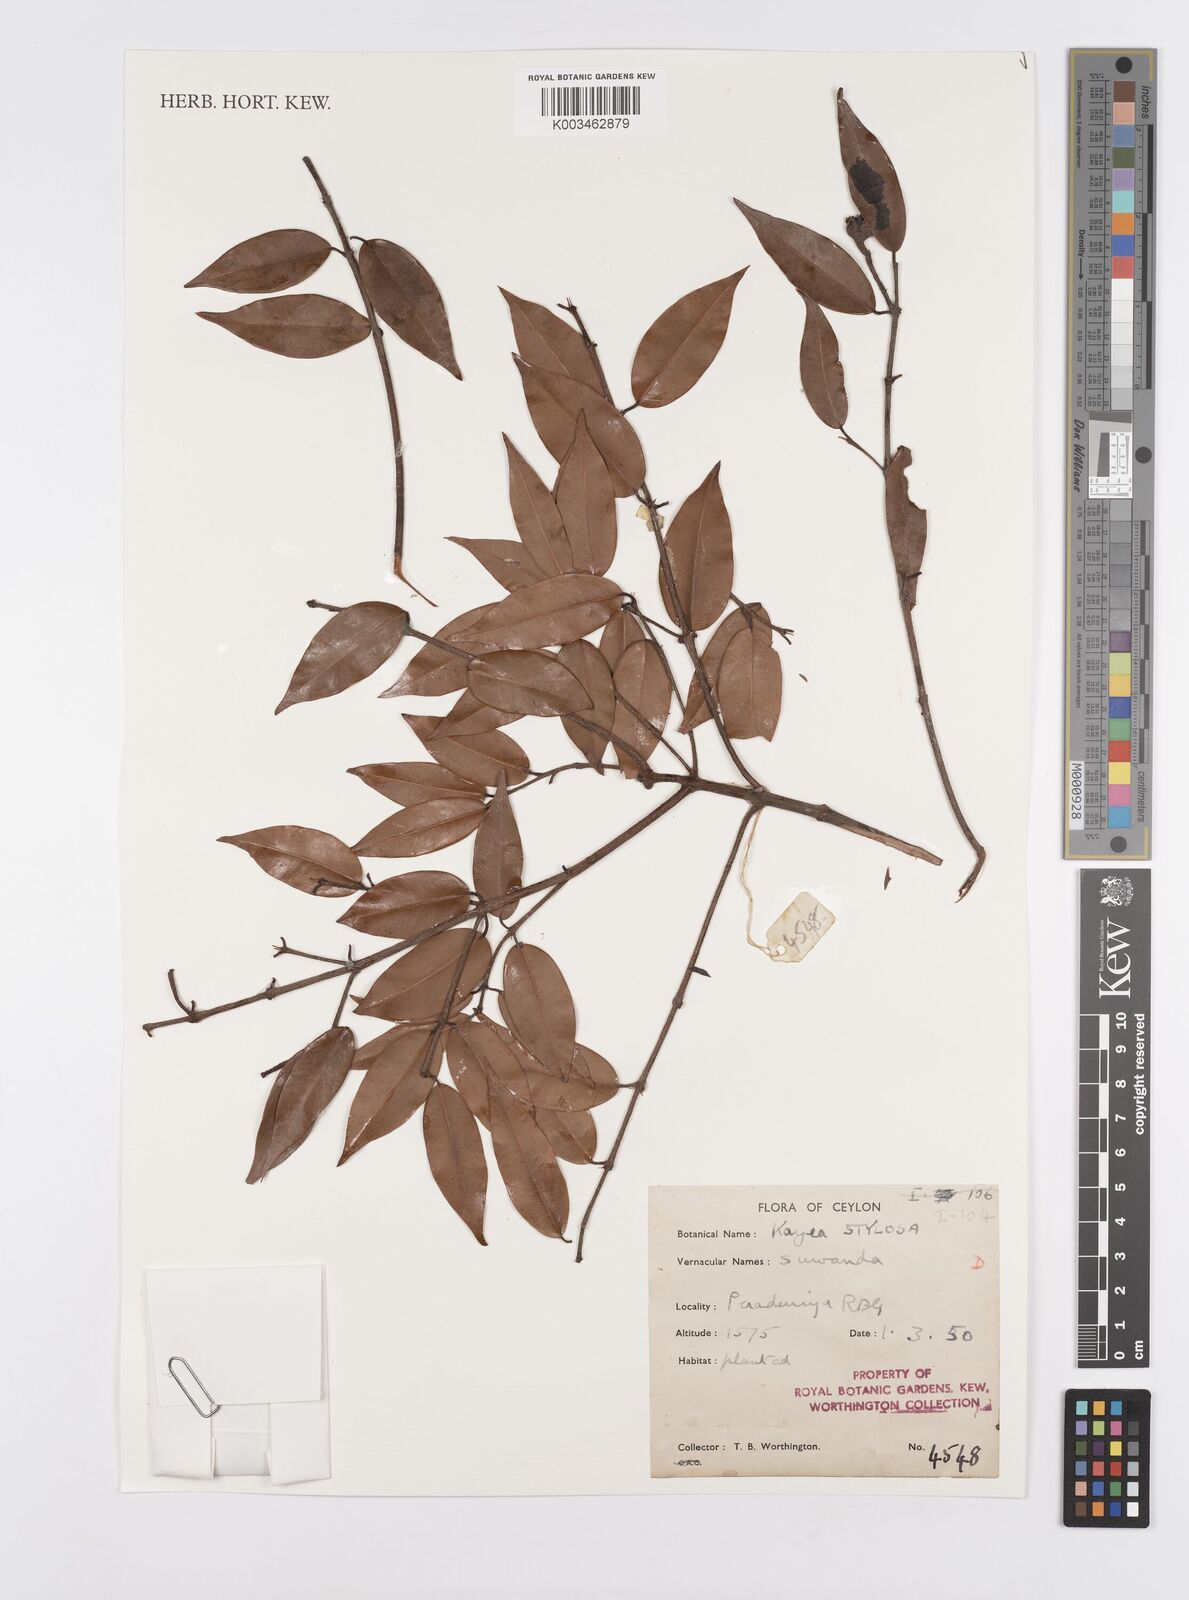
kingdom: Plantae
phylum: Tracheophyta
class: Magnoliopsida
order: Malpighiales
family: Calophyllaceae
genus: Kayea
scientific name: Kayea stylosa
